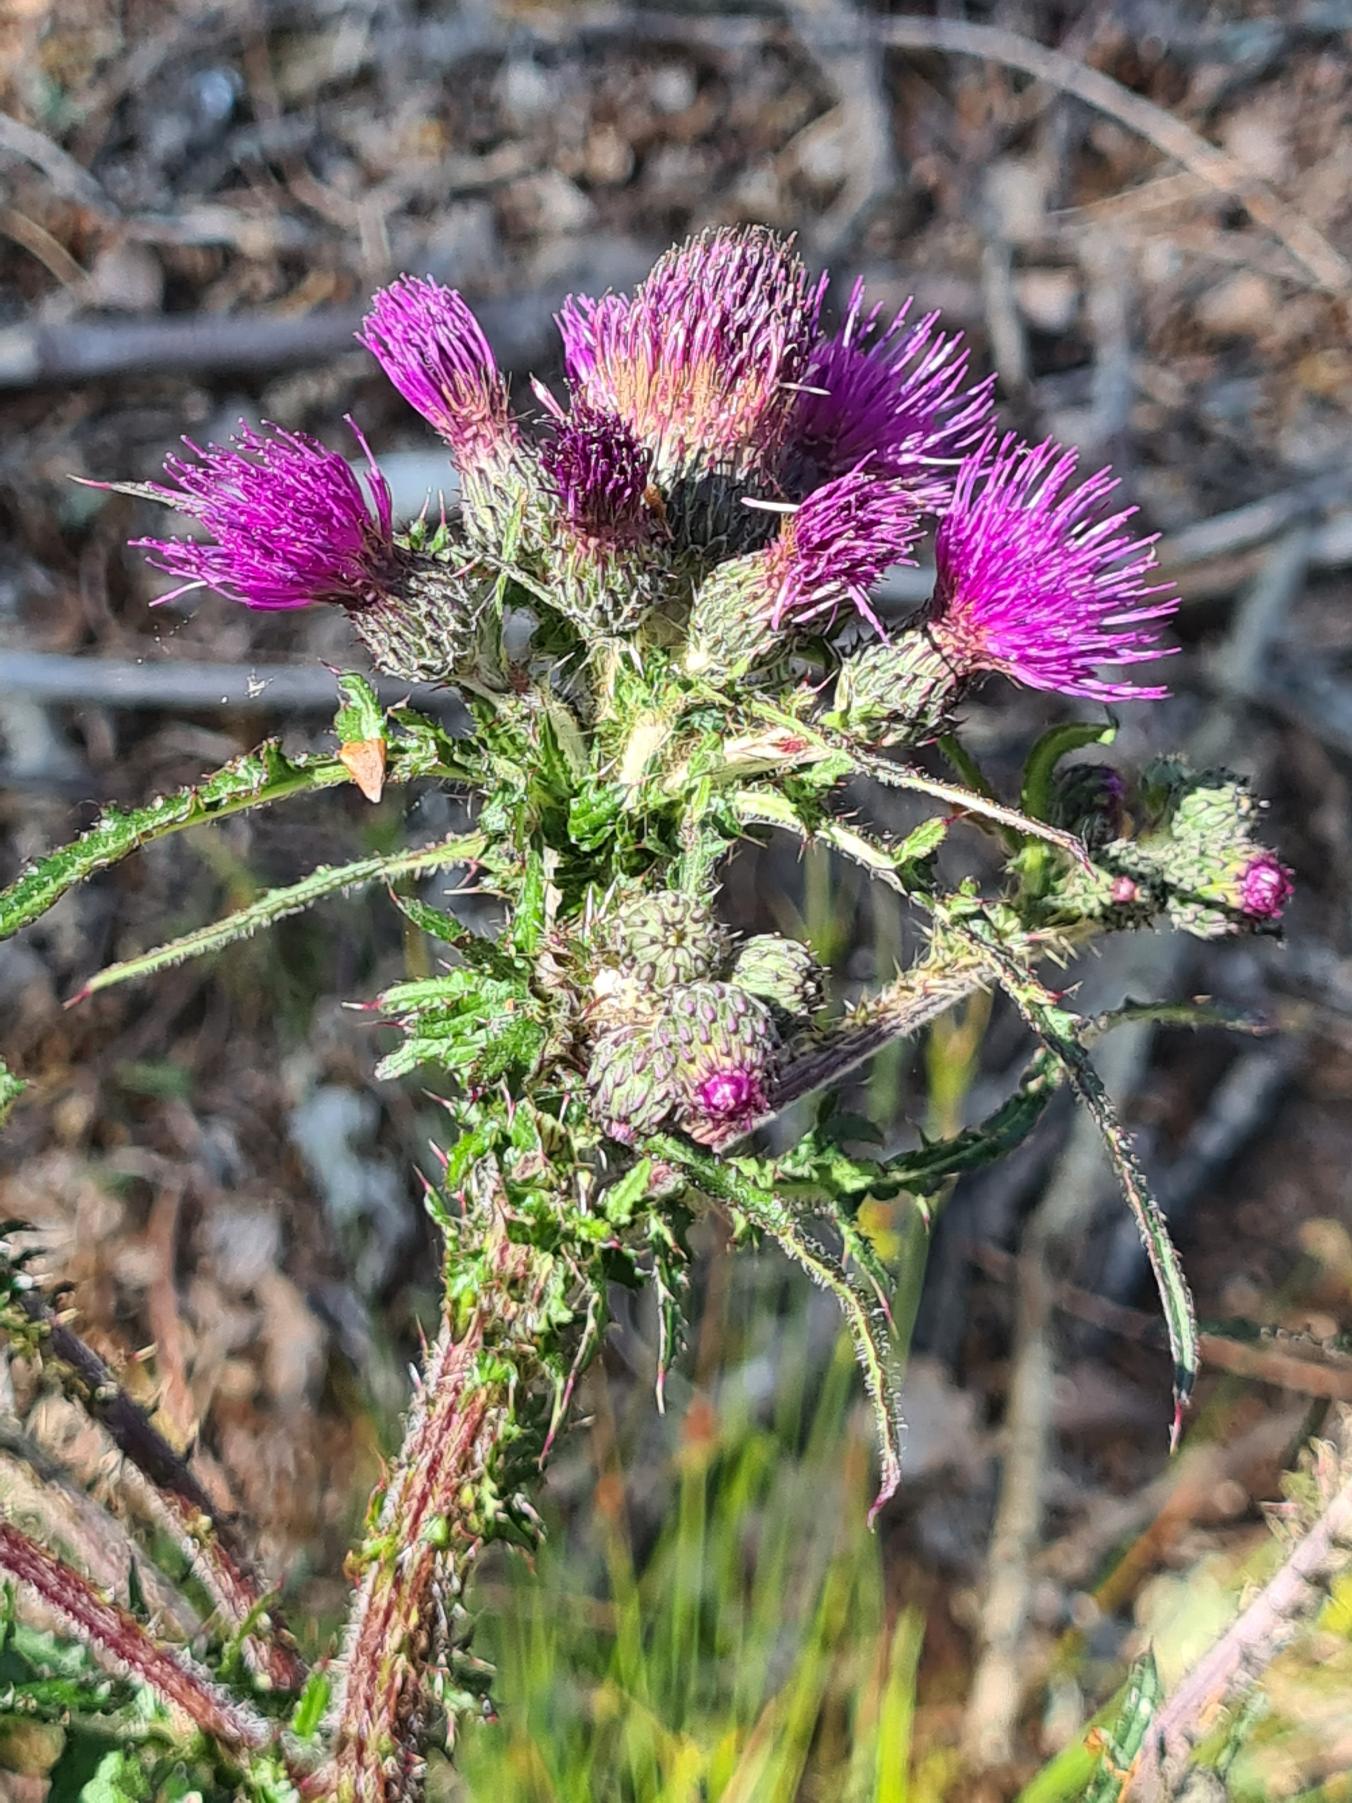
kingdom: Plantae
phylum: Tracheophyta
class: Magnoliopsida
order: Asterales
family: Asteraceae
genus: Cirsium
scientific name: Cirsium palustre
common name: Kær-tidsel
